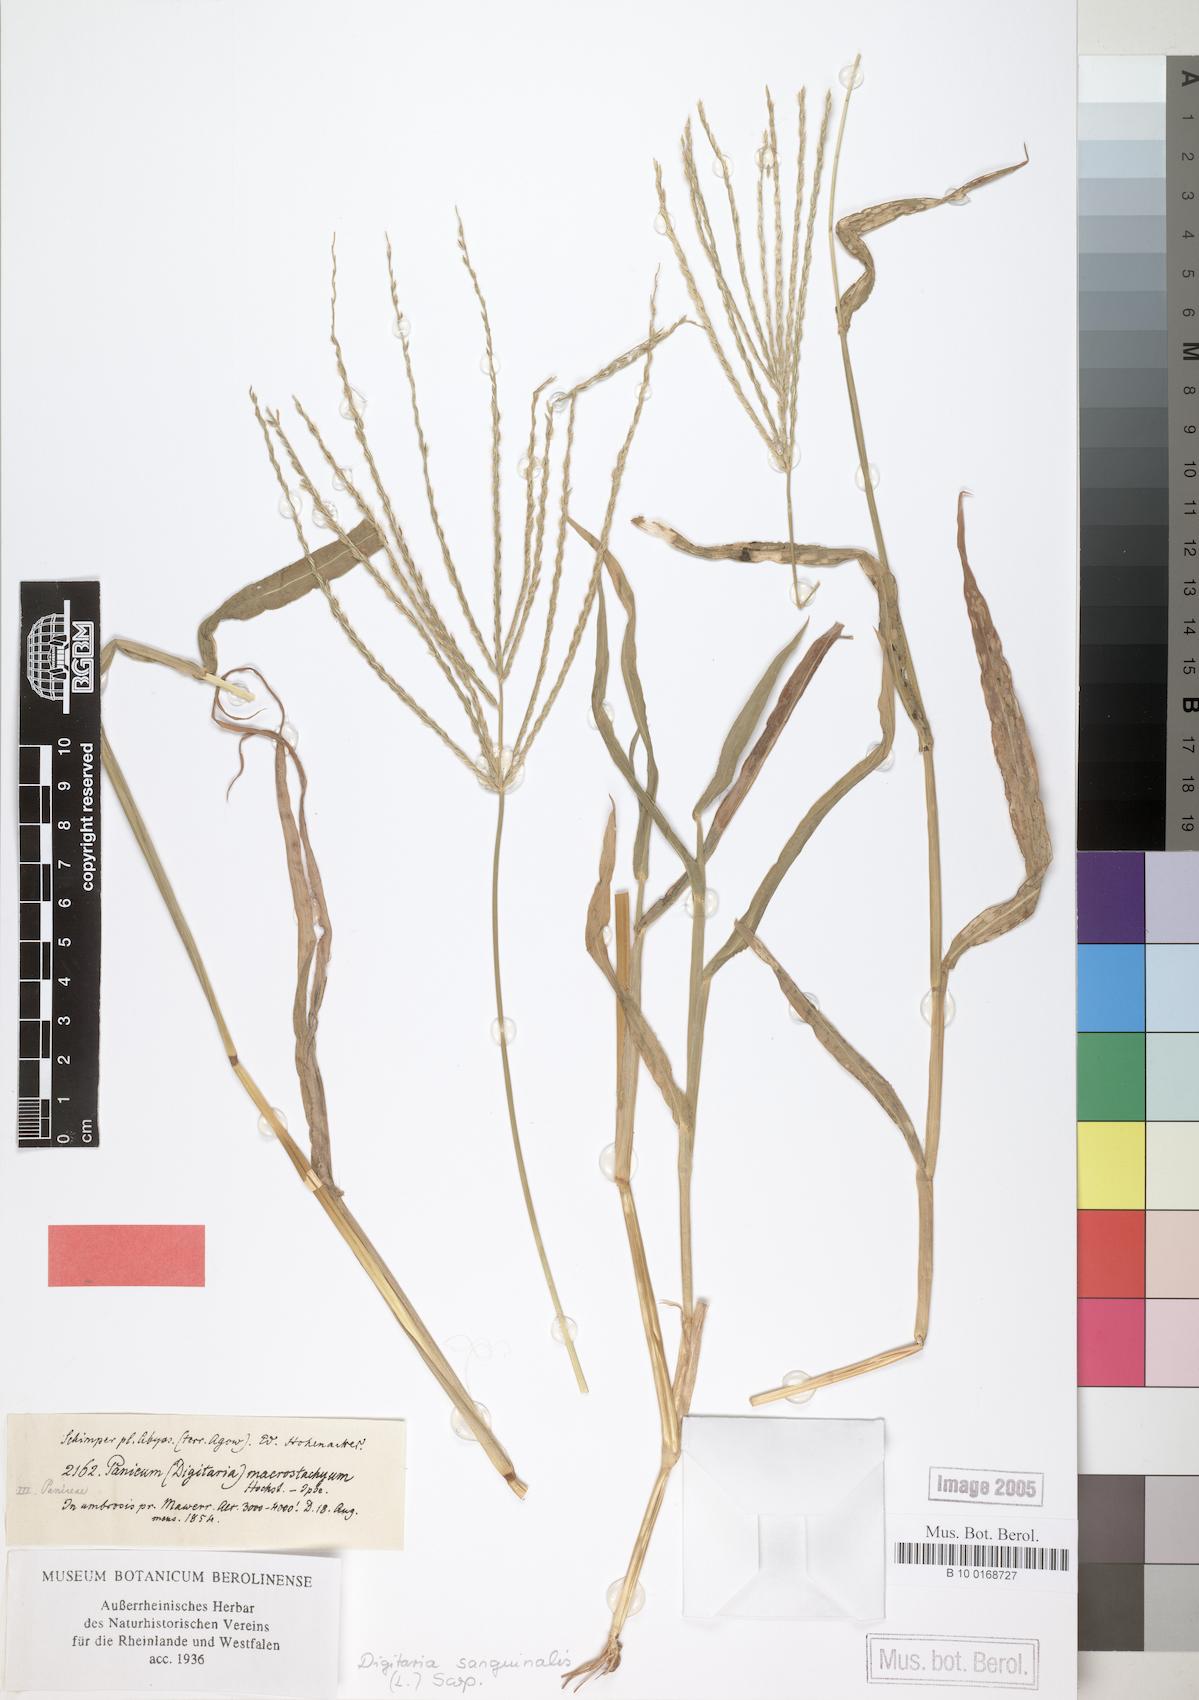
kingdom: Plantae
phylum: Tracheophyta
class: Liliopsida
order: Poales
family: Poaceae
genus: Digitaria
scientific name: Digitaria bicornis
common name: Asian crabgrass
